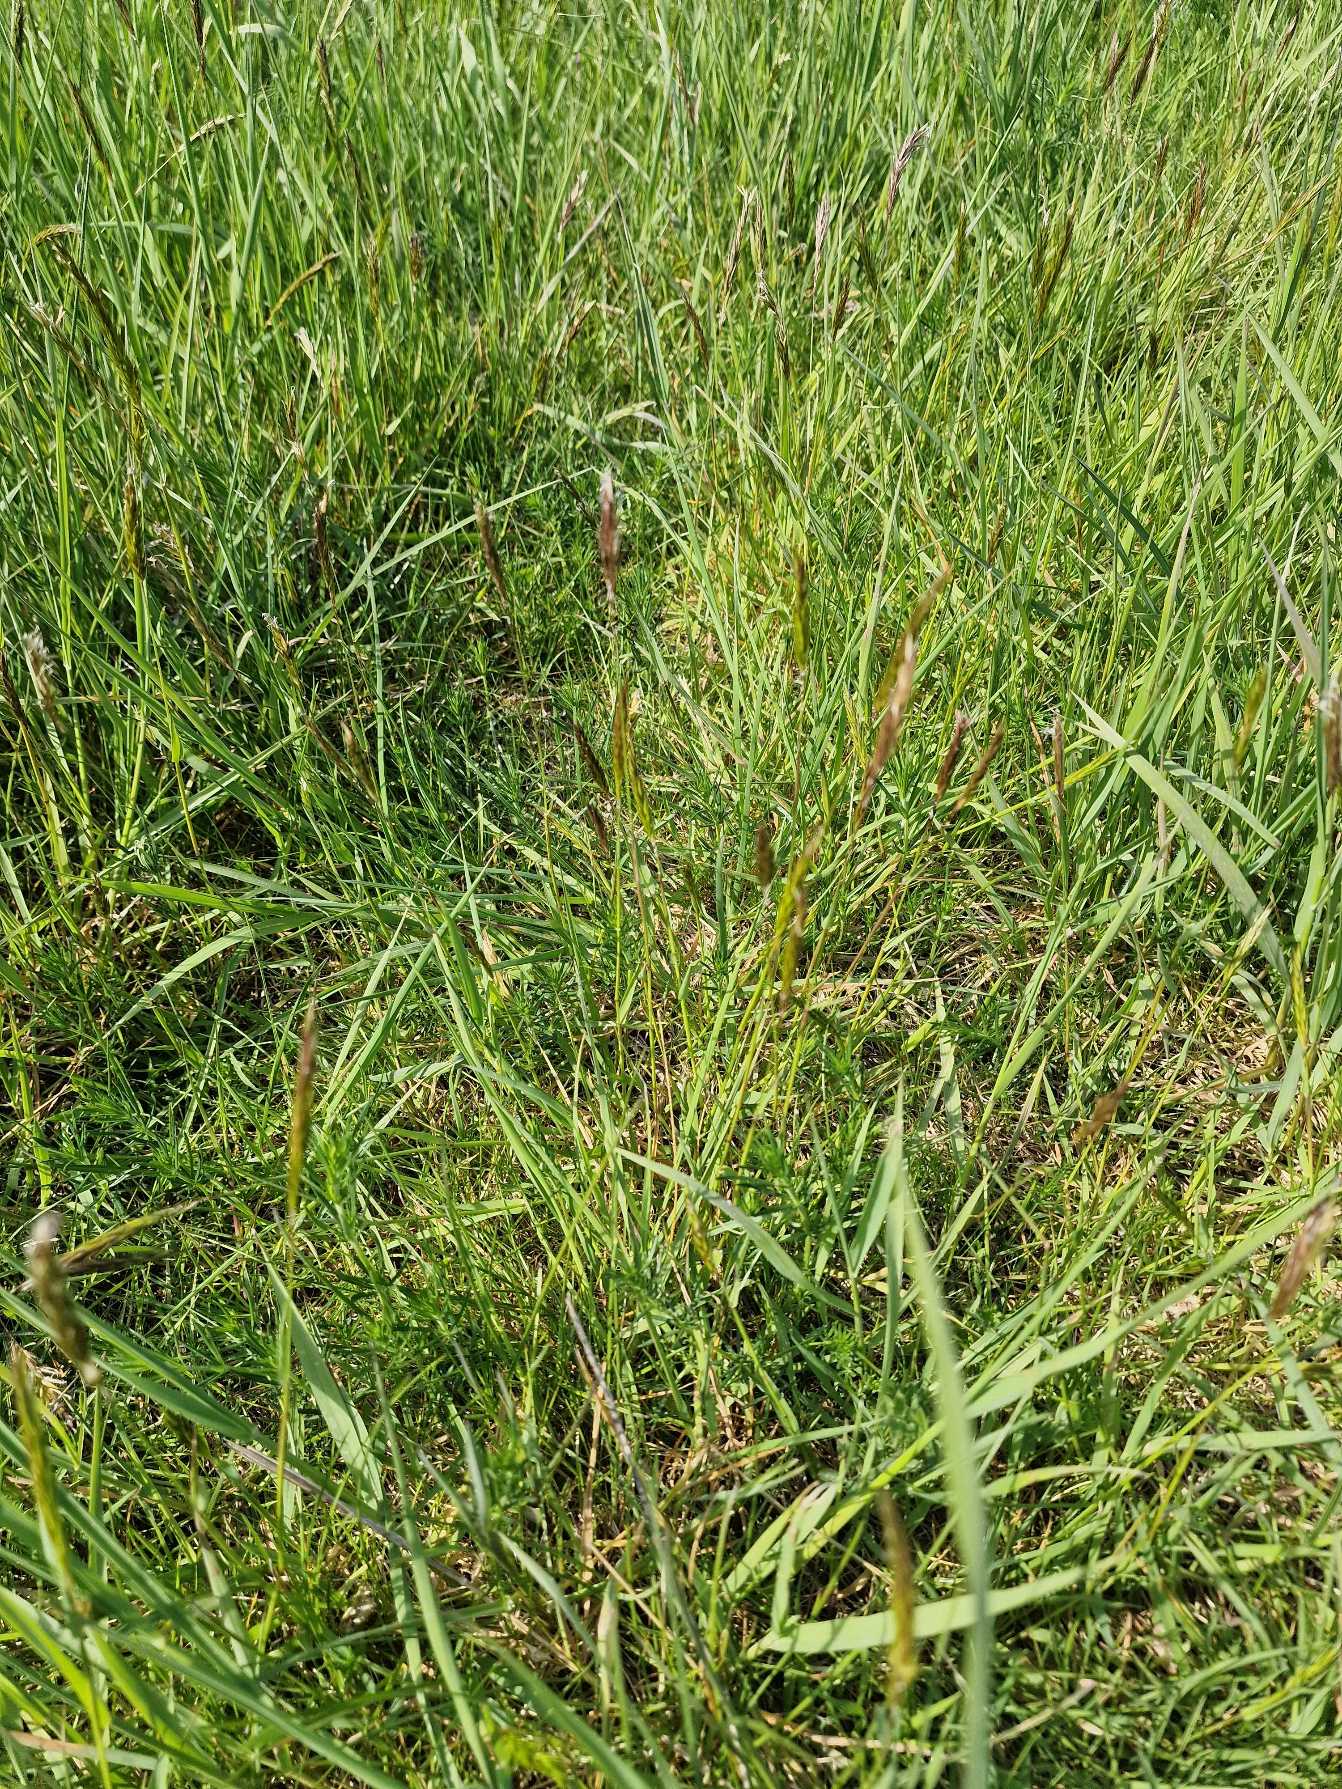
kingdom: Plantae
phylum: Tracheophyta
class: Liliopsida
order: Poales
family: Poaceae
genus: Anthoxanthum
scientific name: Anthoxanthum odoratum
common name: Vellugtende gulaks
